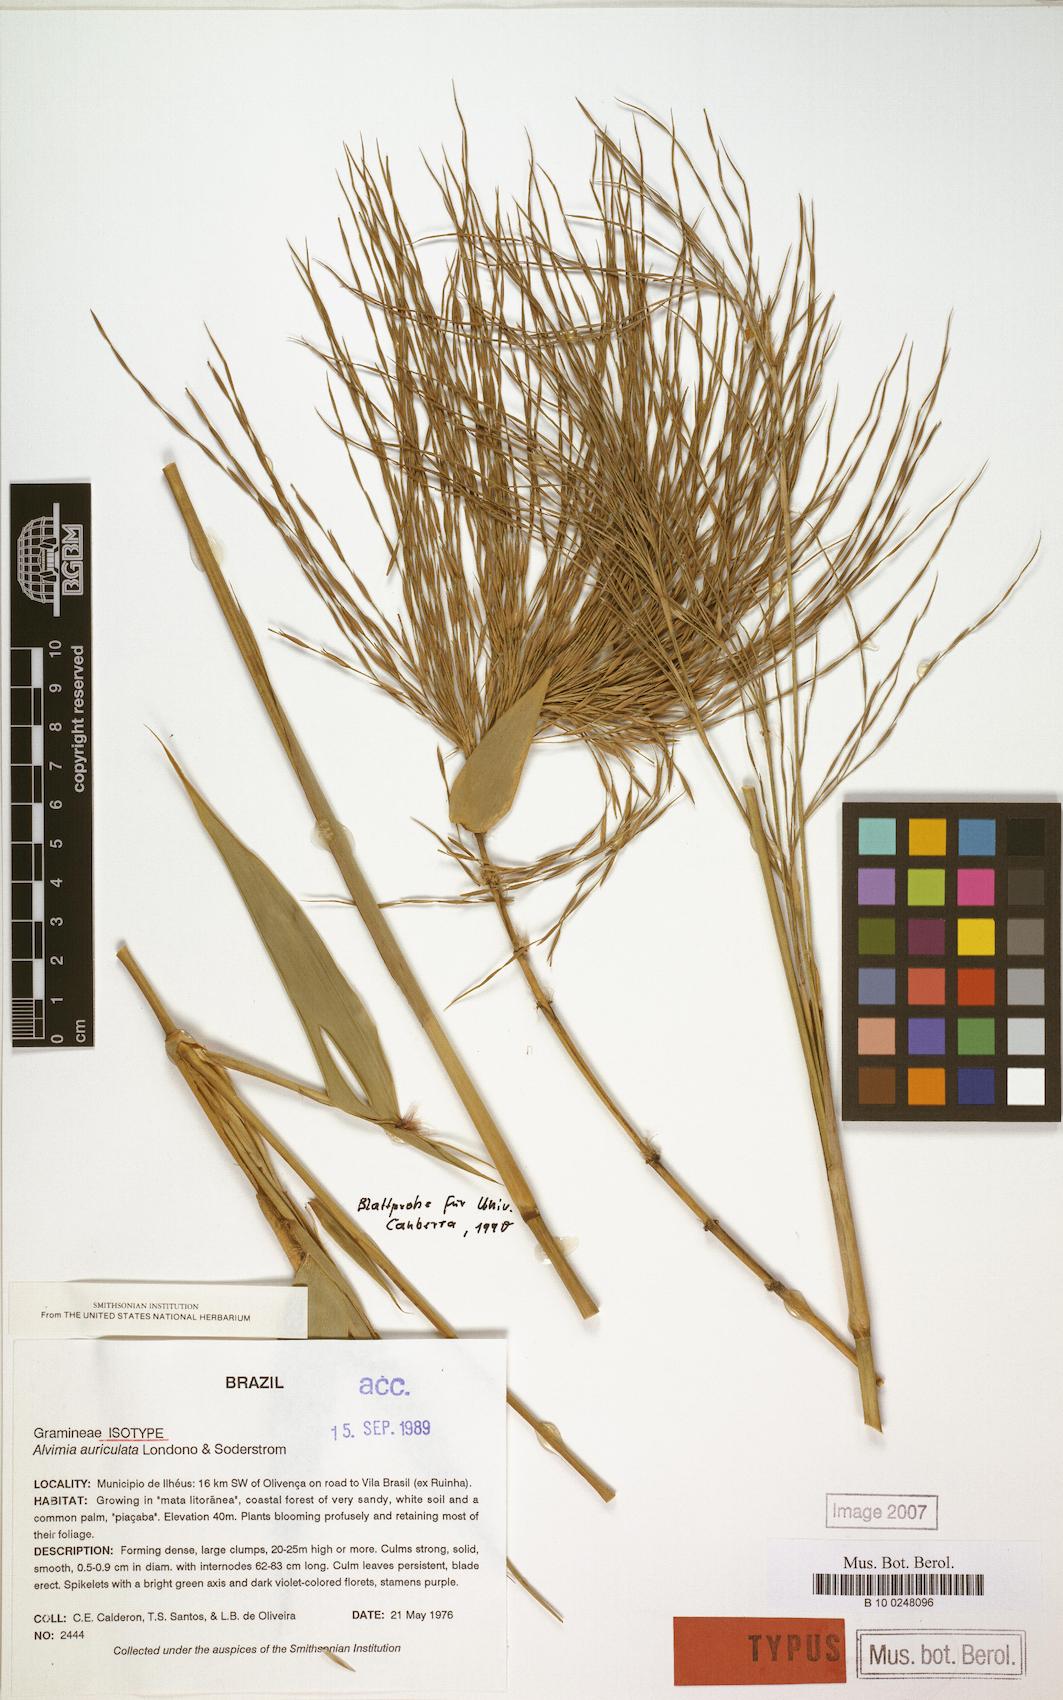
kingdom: Plantae
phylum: Tracheophyta
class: Liliopsida
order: Poales
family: Poaceae
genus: Alvimia
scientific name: Alvimia auriculata
